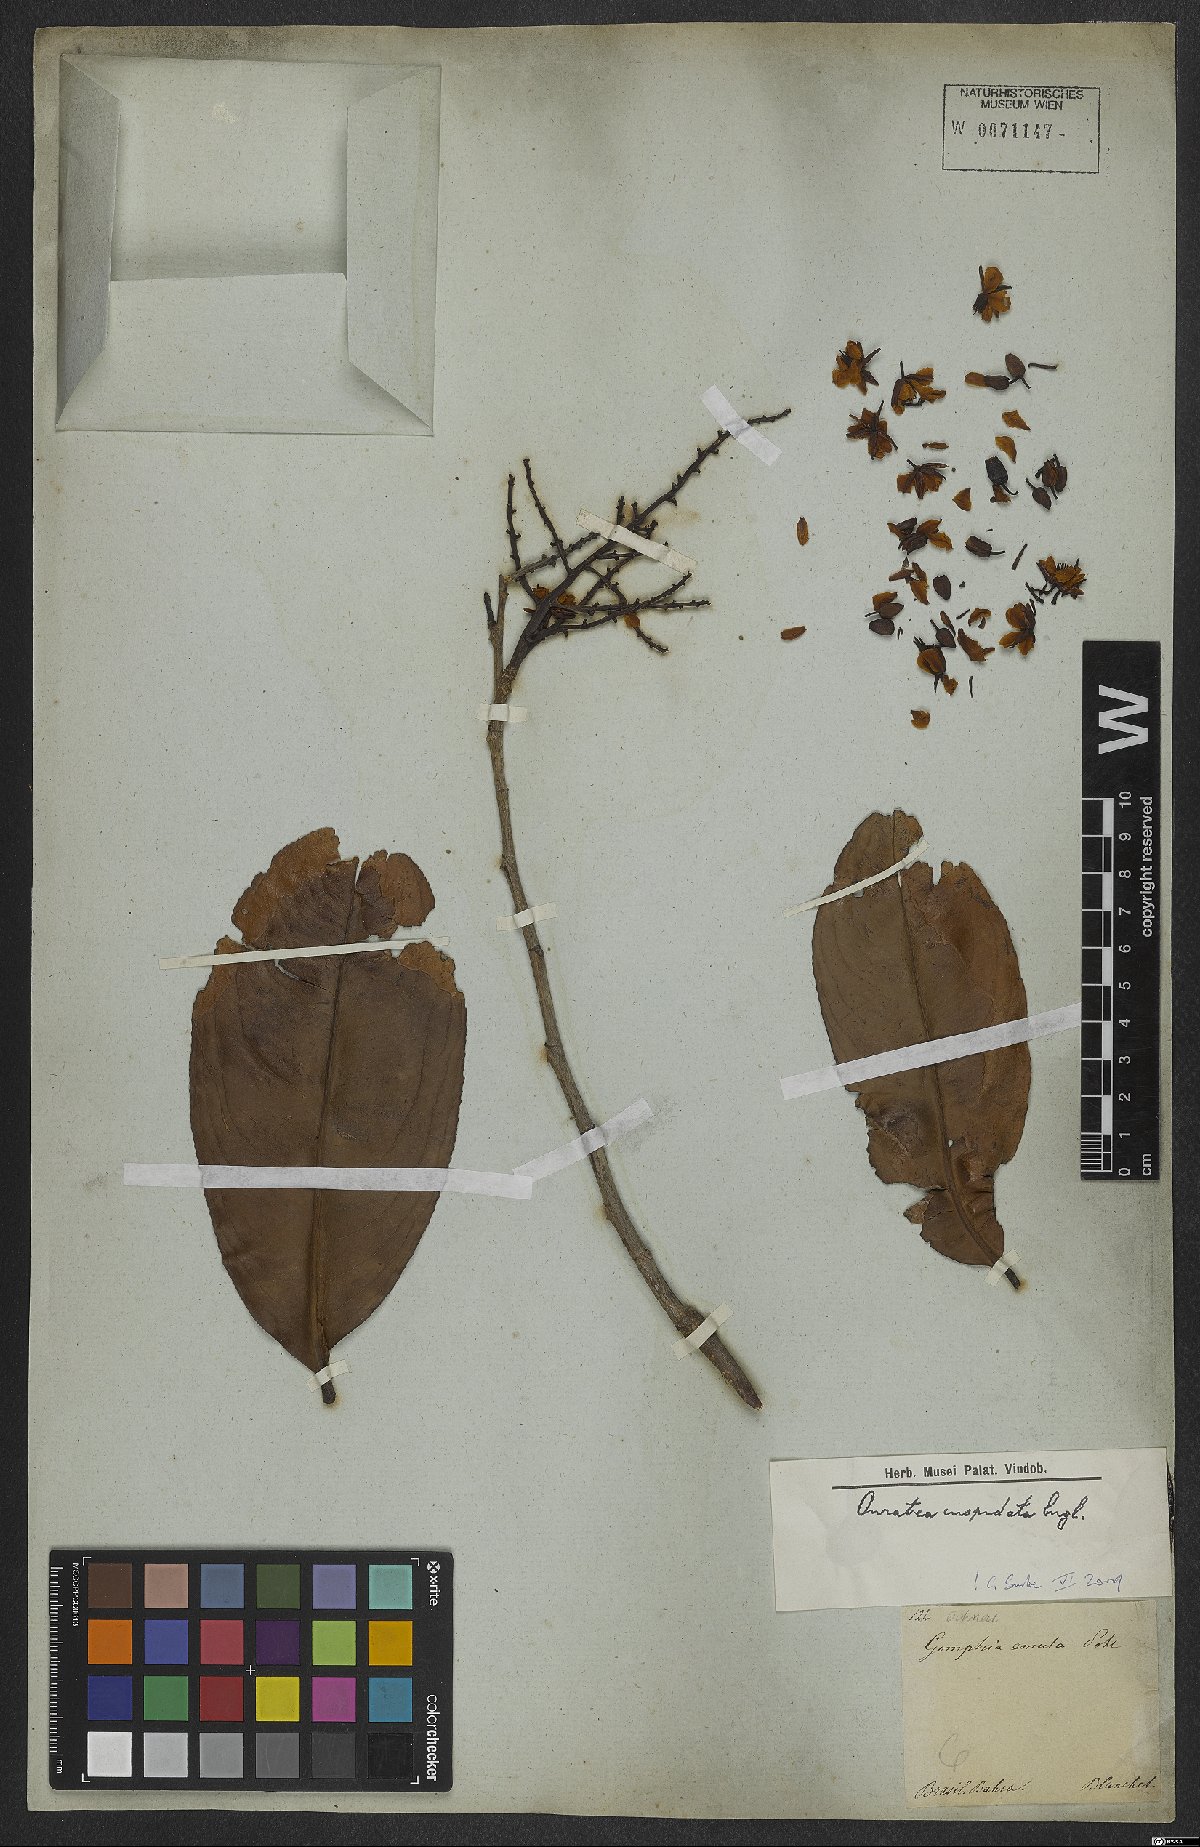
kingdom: Plantae
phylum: Tracheophyta
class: Magnoliopsida
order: Malpighiales
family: Ochnaceae
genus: Ouratea
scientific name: Ouratea cuspidata
